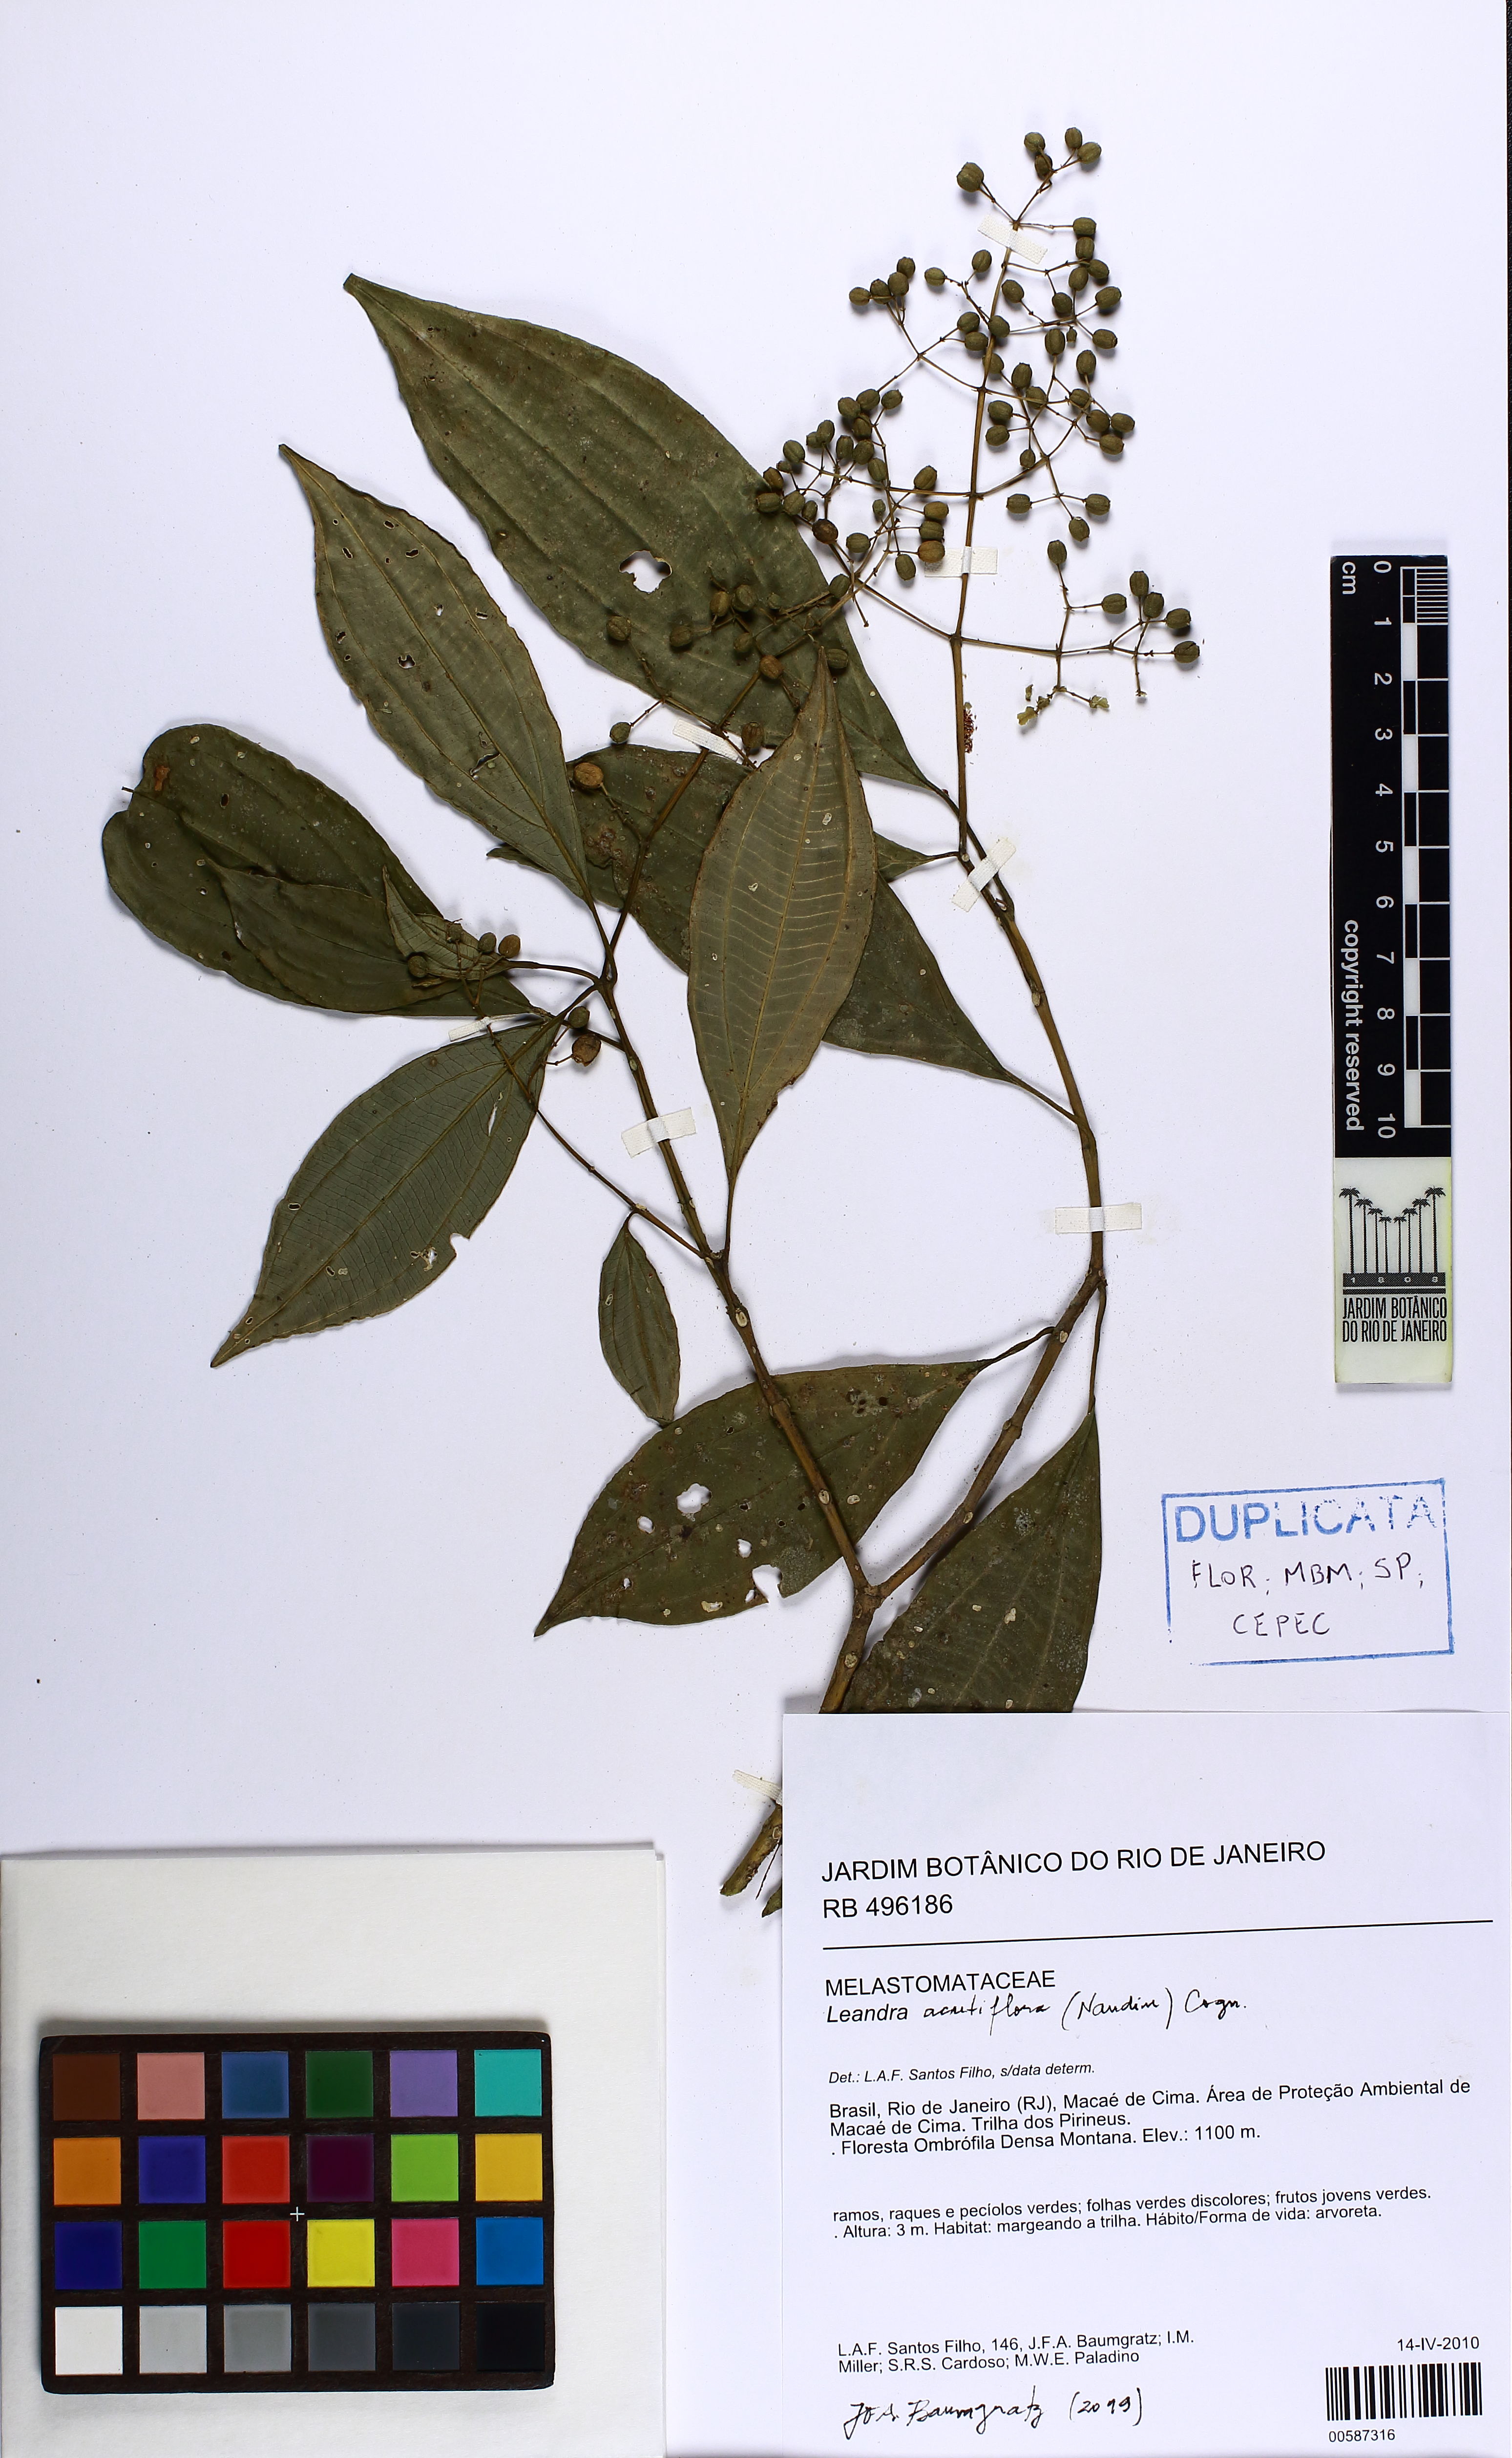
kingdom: Plantae
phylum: Tracheophyta
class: Magnoliopsida
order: Myrtales
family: Melastomataceae
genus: Miconia
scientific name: Miconia acutiflora
